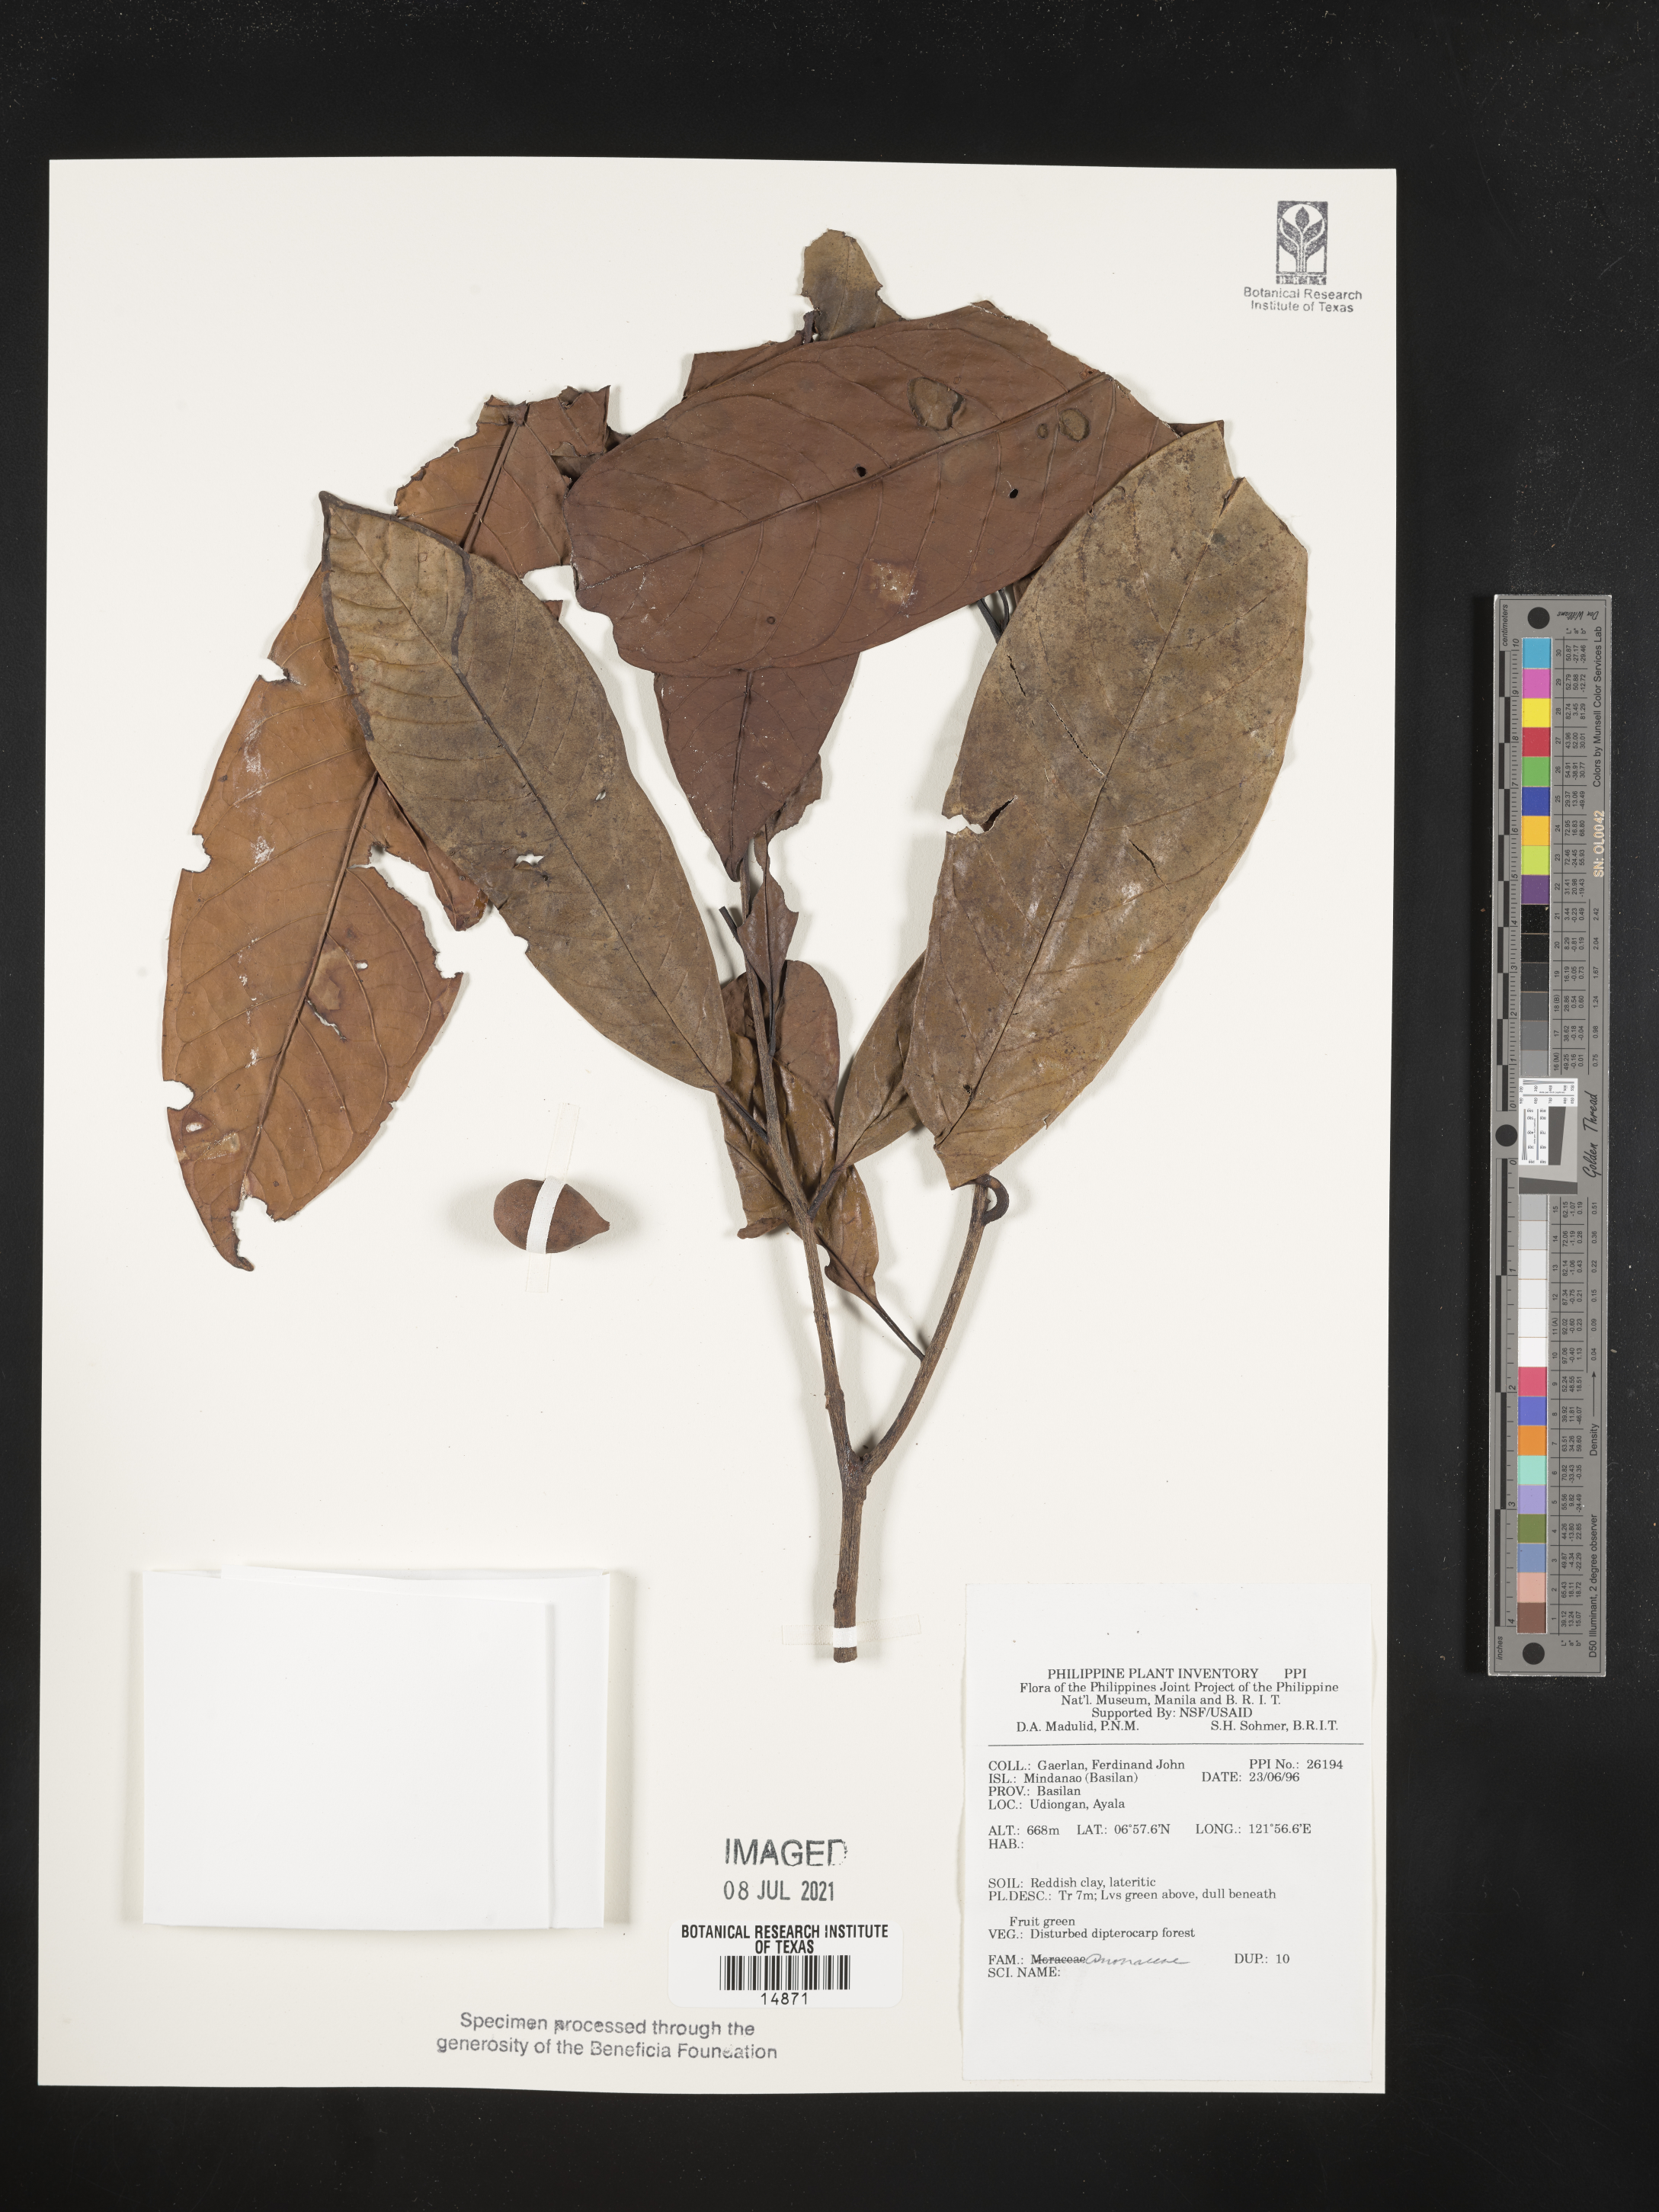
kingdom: Plantae
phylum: Tracheophyta
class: Magnoliopsida
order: Magnoliales
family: Annonaceae
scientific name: Annonaceae
